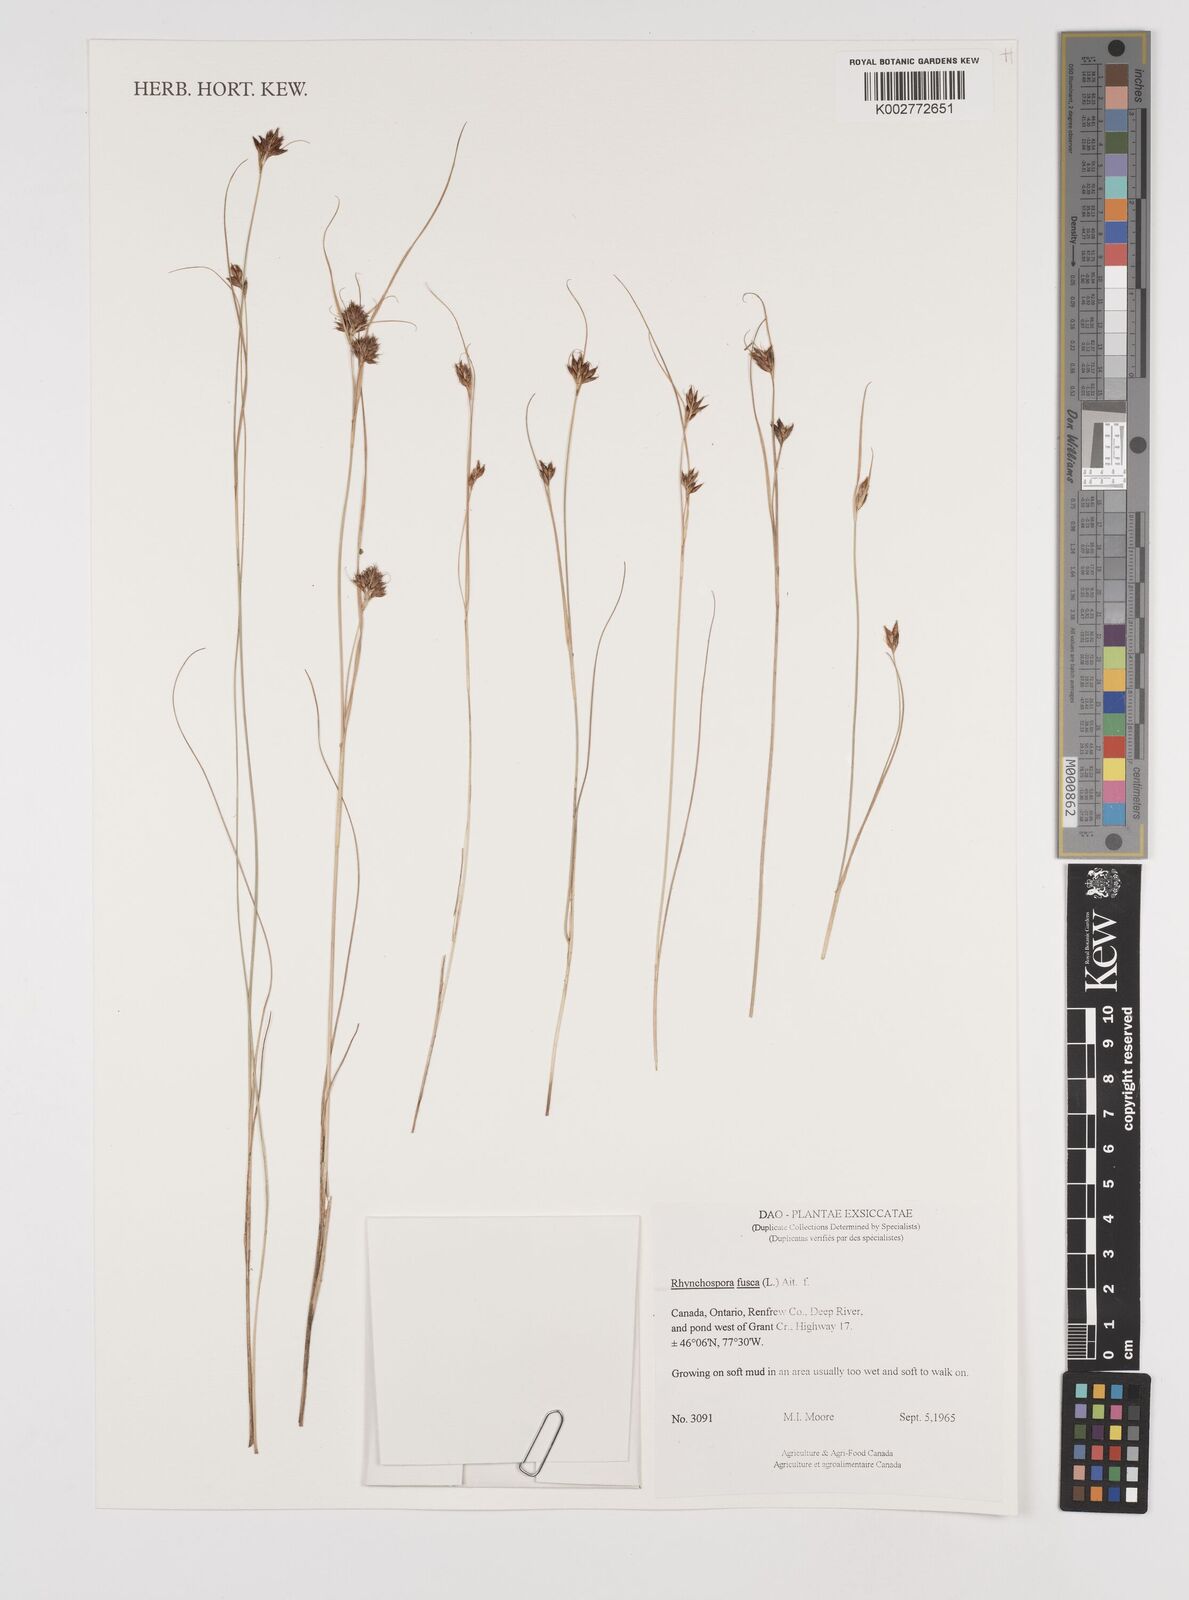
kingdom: Plantae
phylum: Tracheophyta
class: Liliopsida
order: Poales
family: Cyperaceae
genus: Rhynchospora
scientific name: Rhynchospora fusca
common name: Brown beak-sedge
